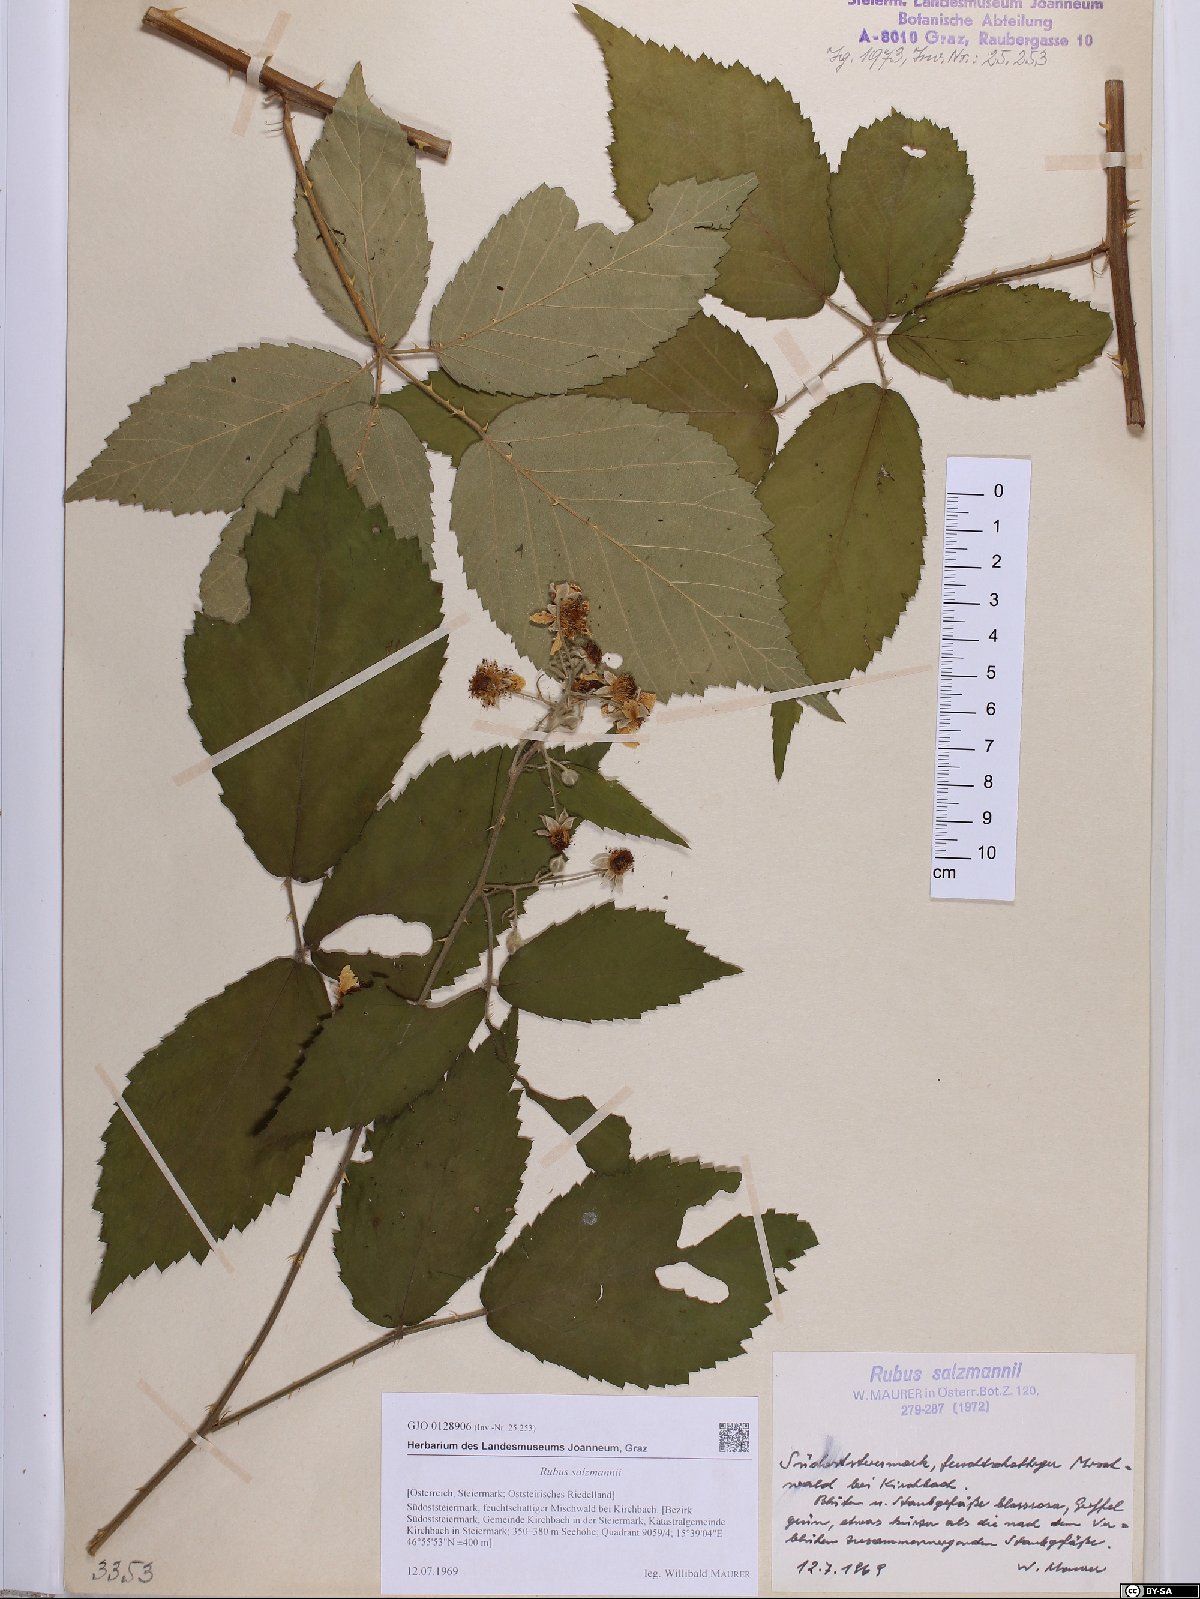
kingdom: Plantae
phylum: Tracheophyta
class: Magnoliopsida
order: Rosales
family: Rosaceae
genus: Rubus
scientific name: Rubus salzmannii
